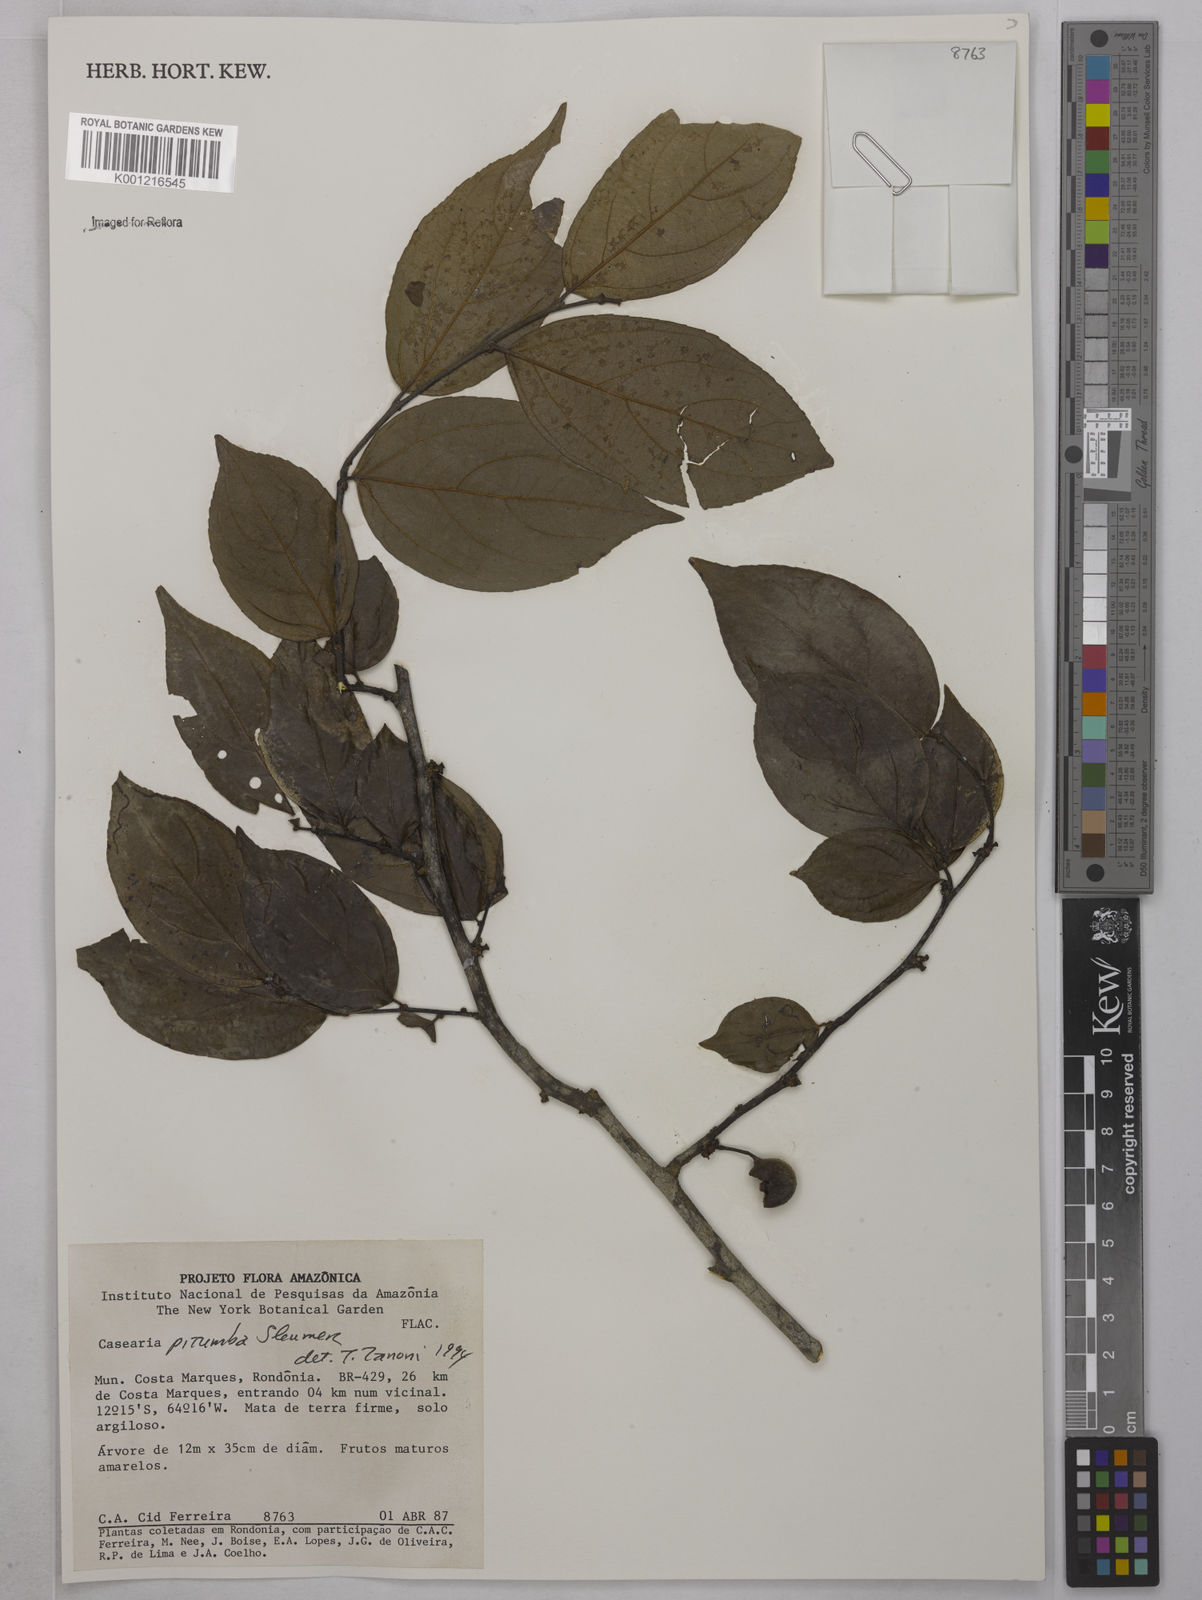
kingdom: Plantae
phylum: Tracheophyta
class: Magnoliopsida
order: Malpighiales
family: Salicaceae
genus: Casearia
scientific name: Casearia pitumba
